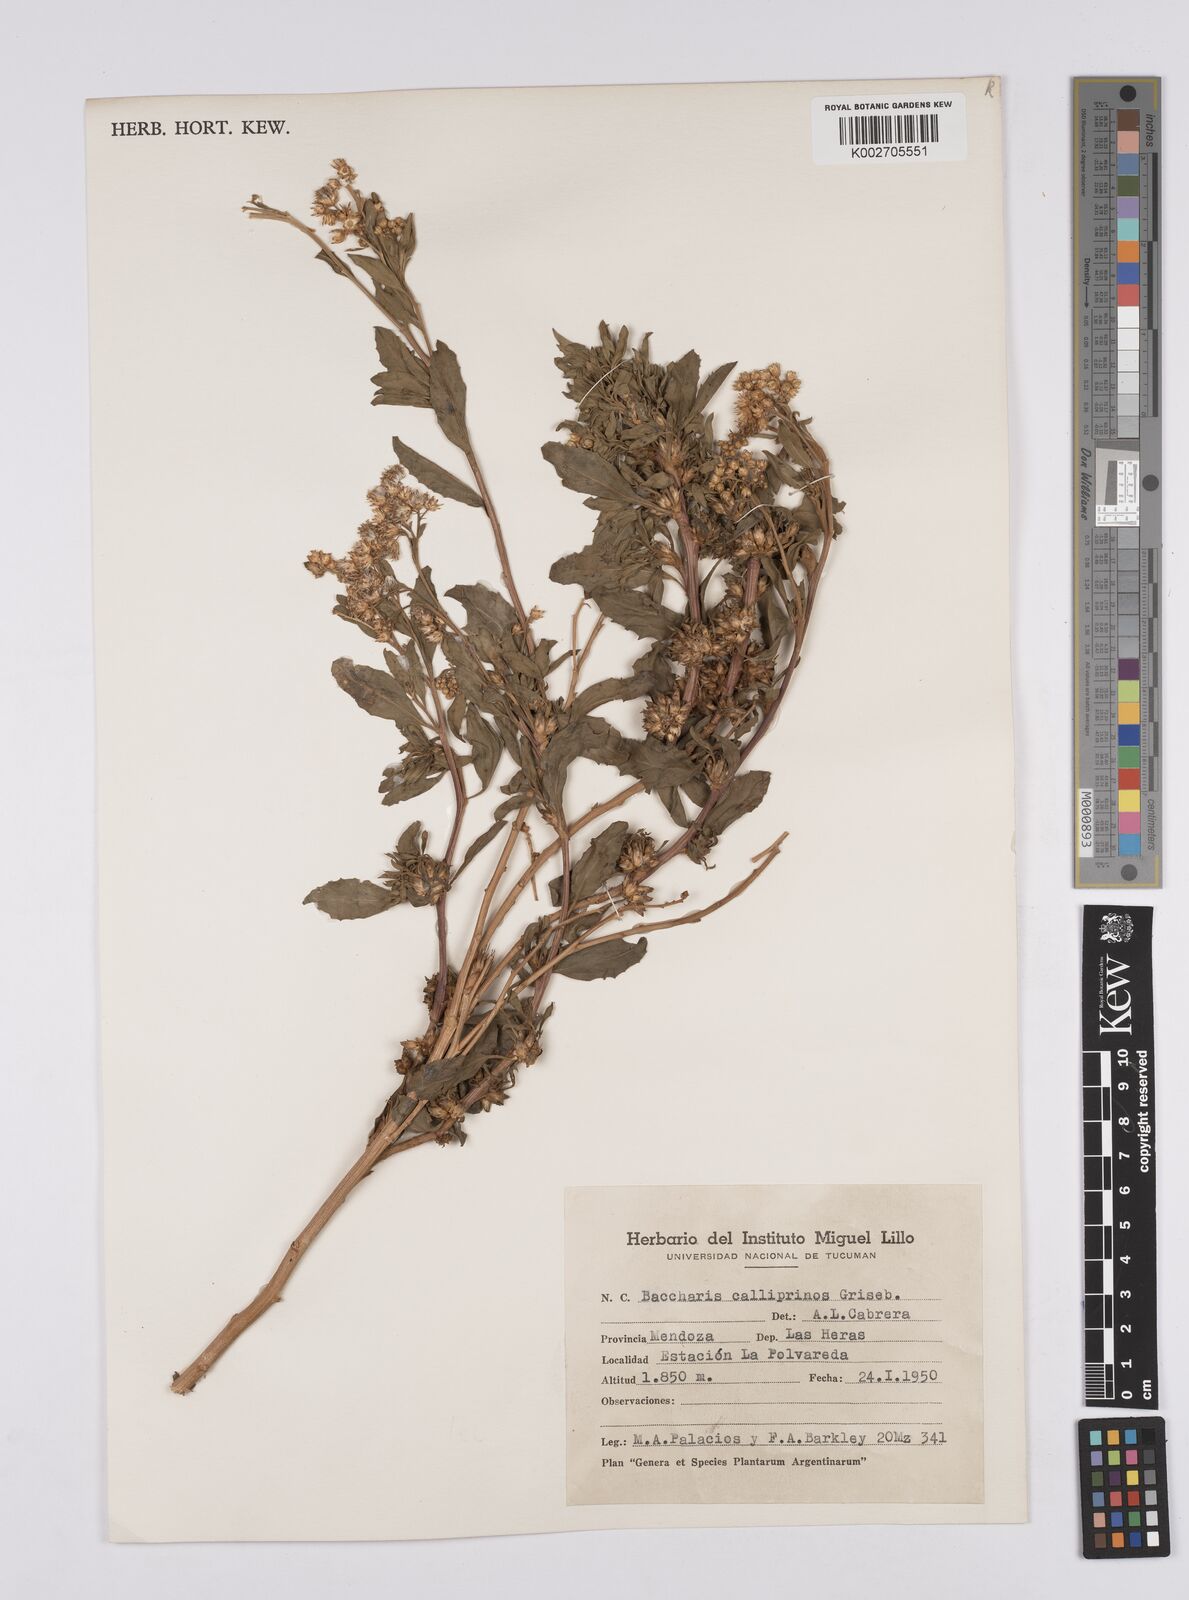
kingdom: Plantae
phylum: Tracheophyta
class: Magnoliopsida
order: Asterales
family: Asteraceae
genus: Baccharis
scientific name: Baccharis salicifolia
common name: Sticky baccharis
